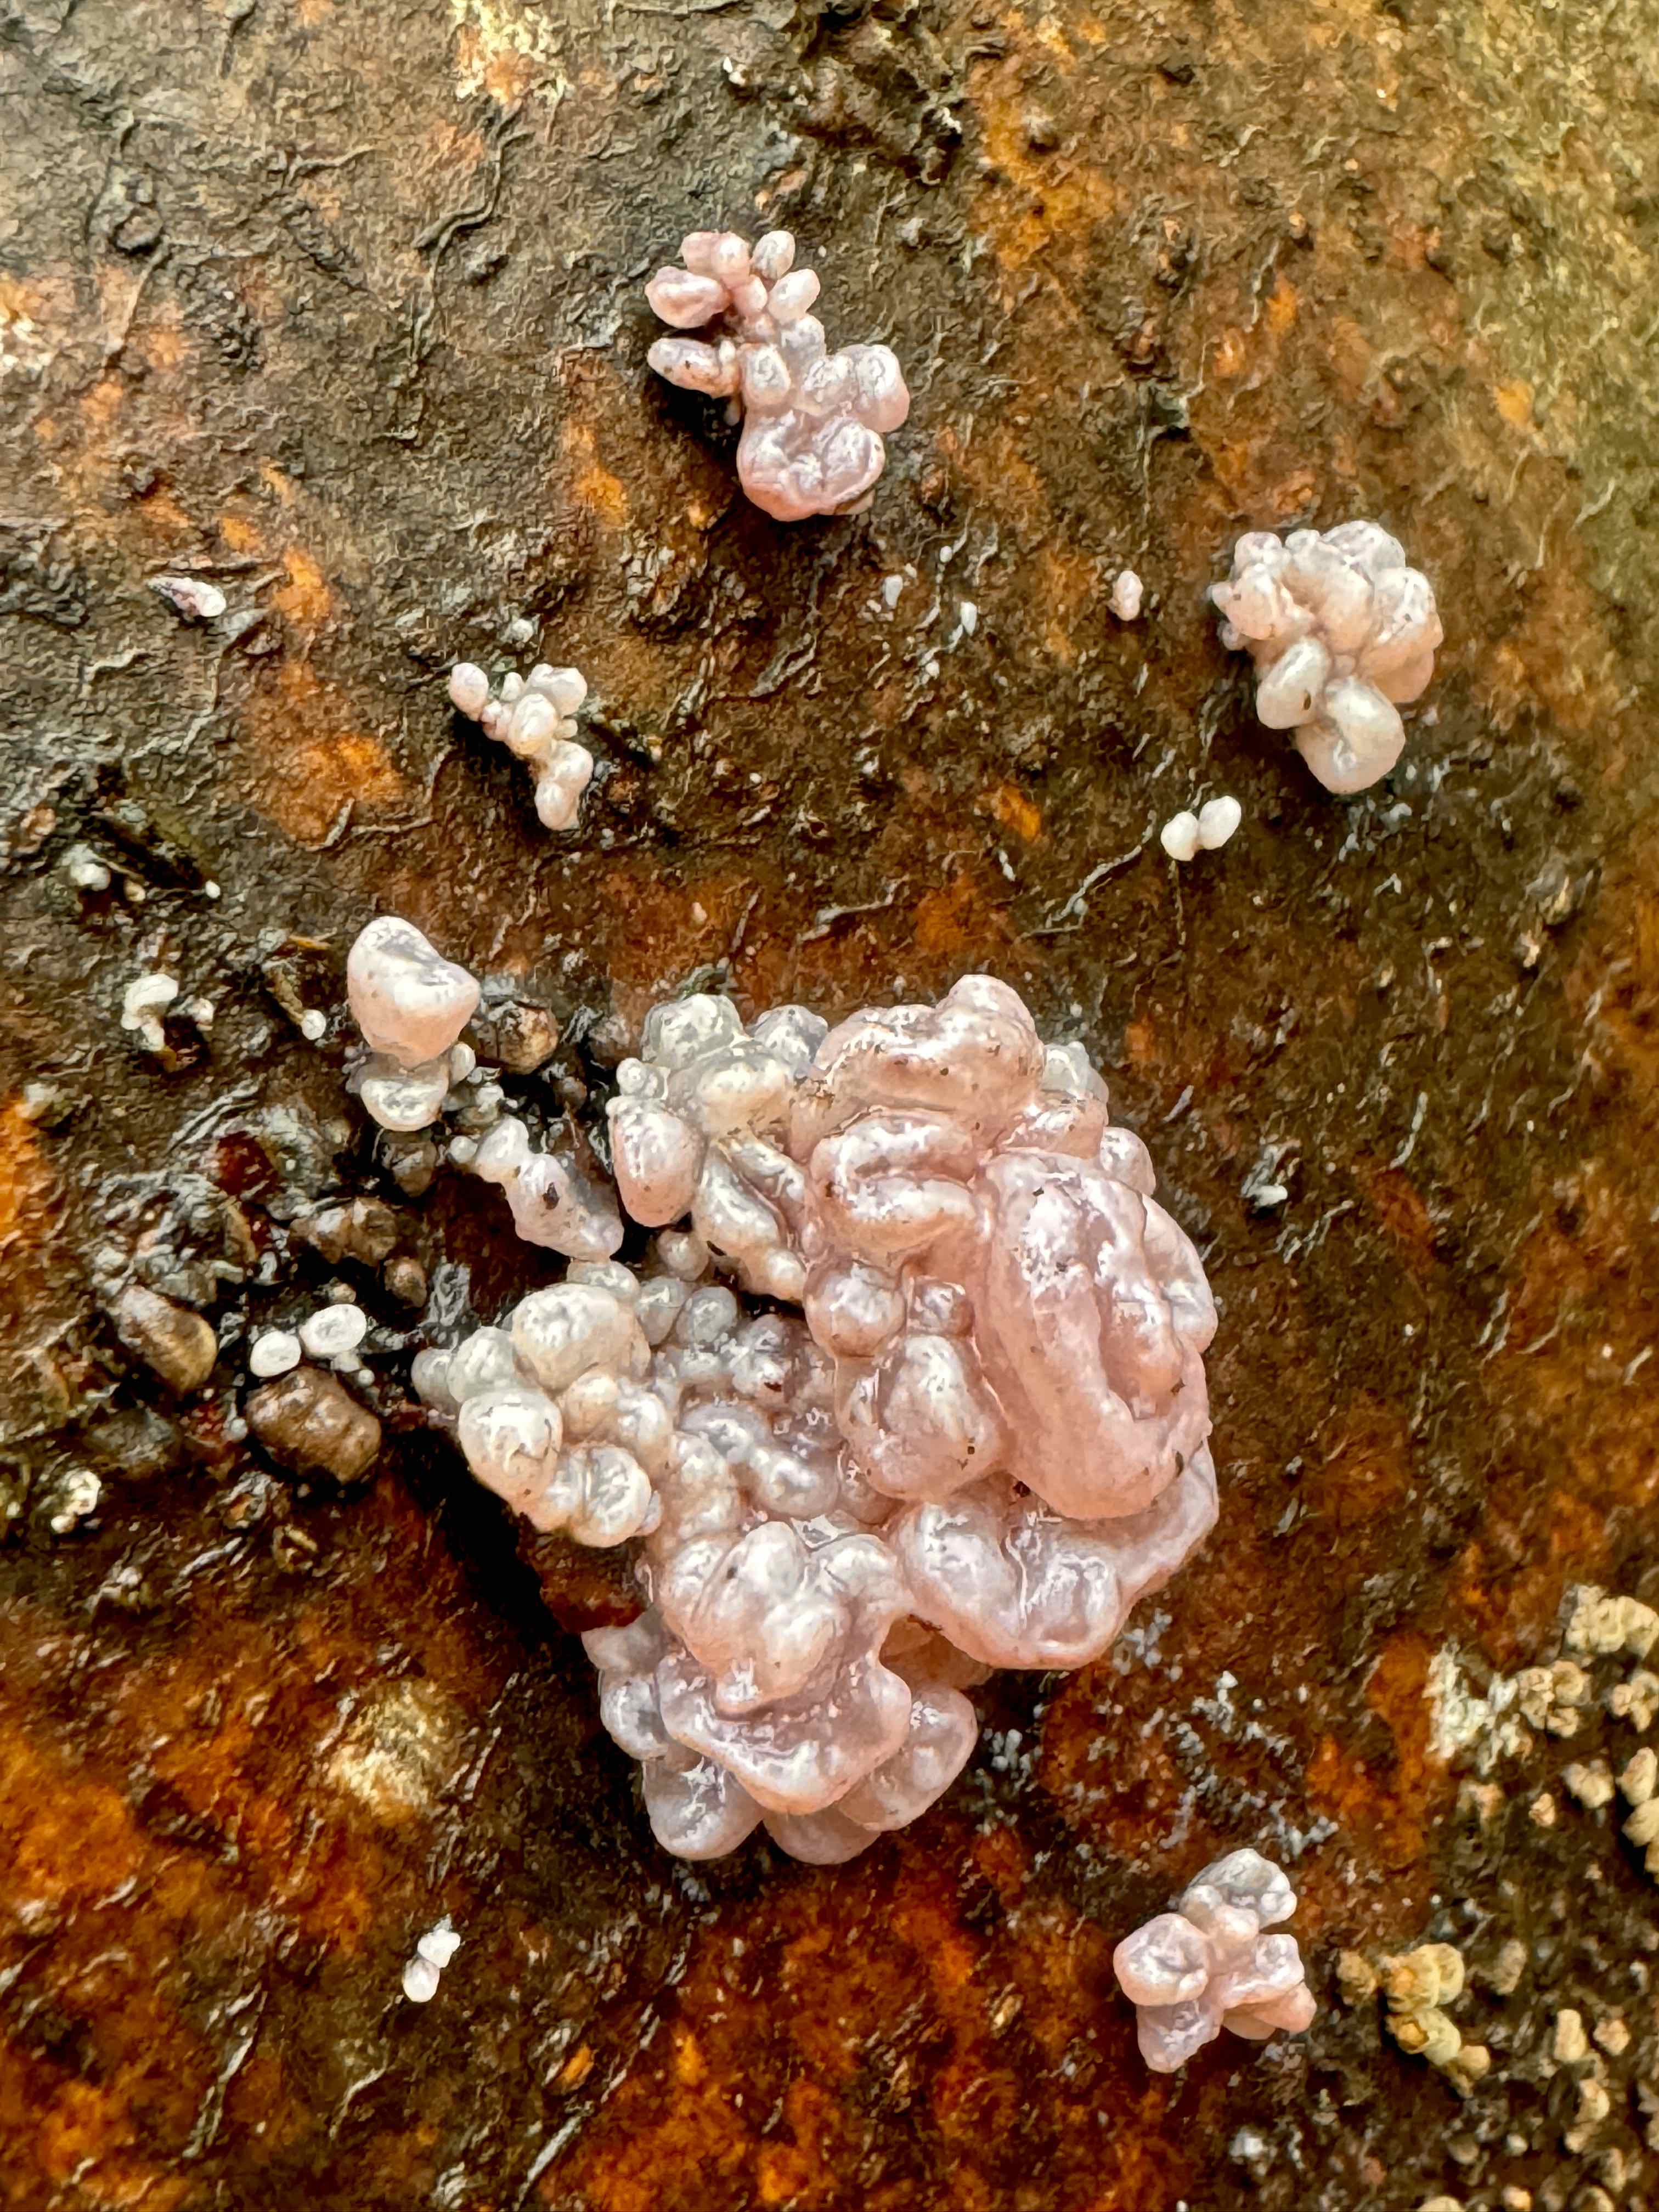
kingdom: Fungi
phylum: Ascomycota
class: Leotiomycetes
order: Helotiales
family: Gelatinodiscaceae
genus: Ascocoryne
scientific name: Ascocoryne sarcoides
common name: rødlilla sejskive
